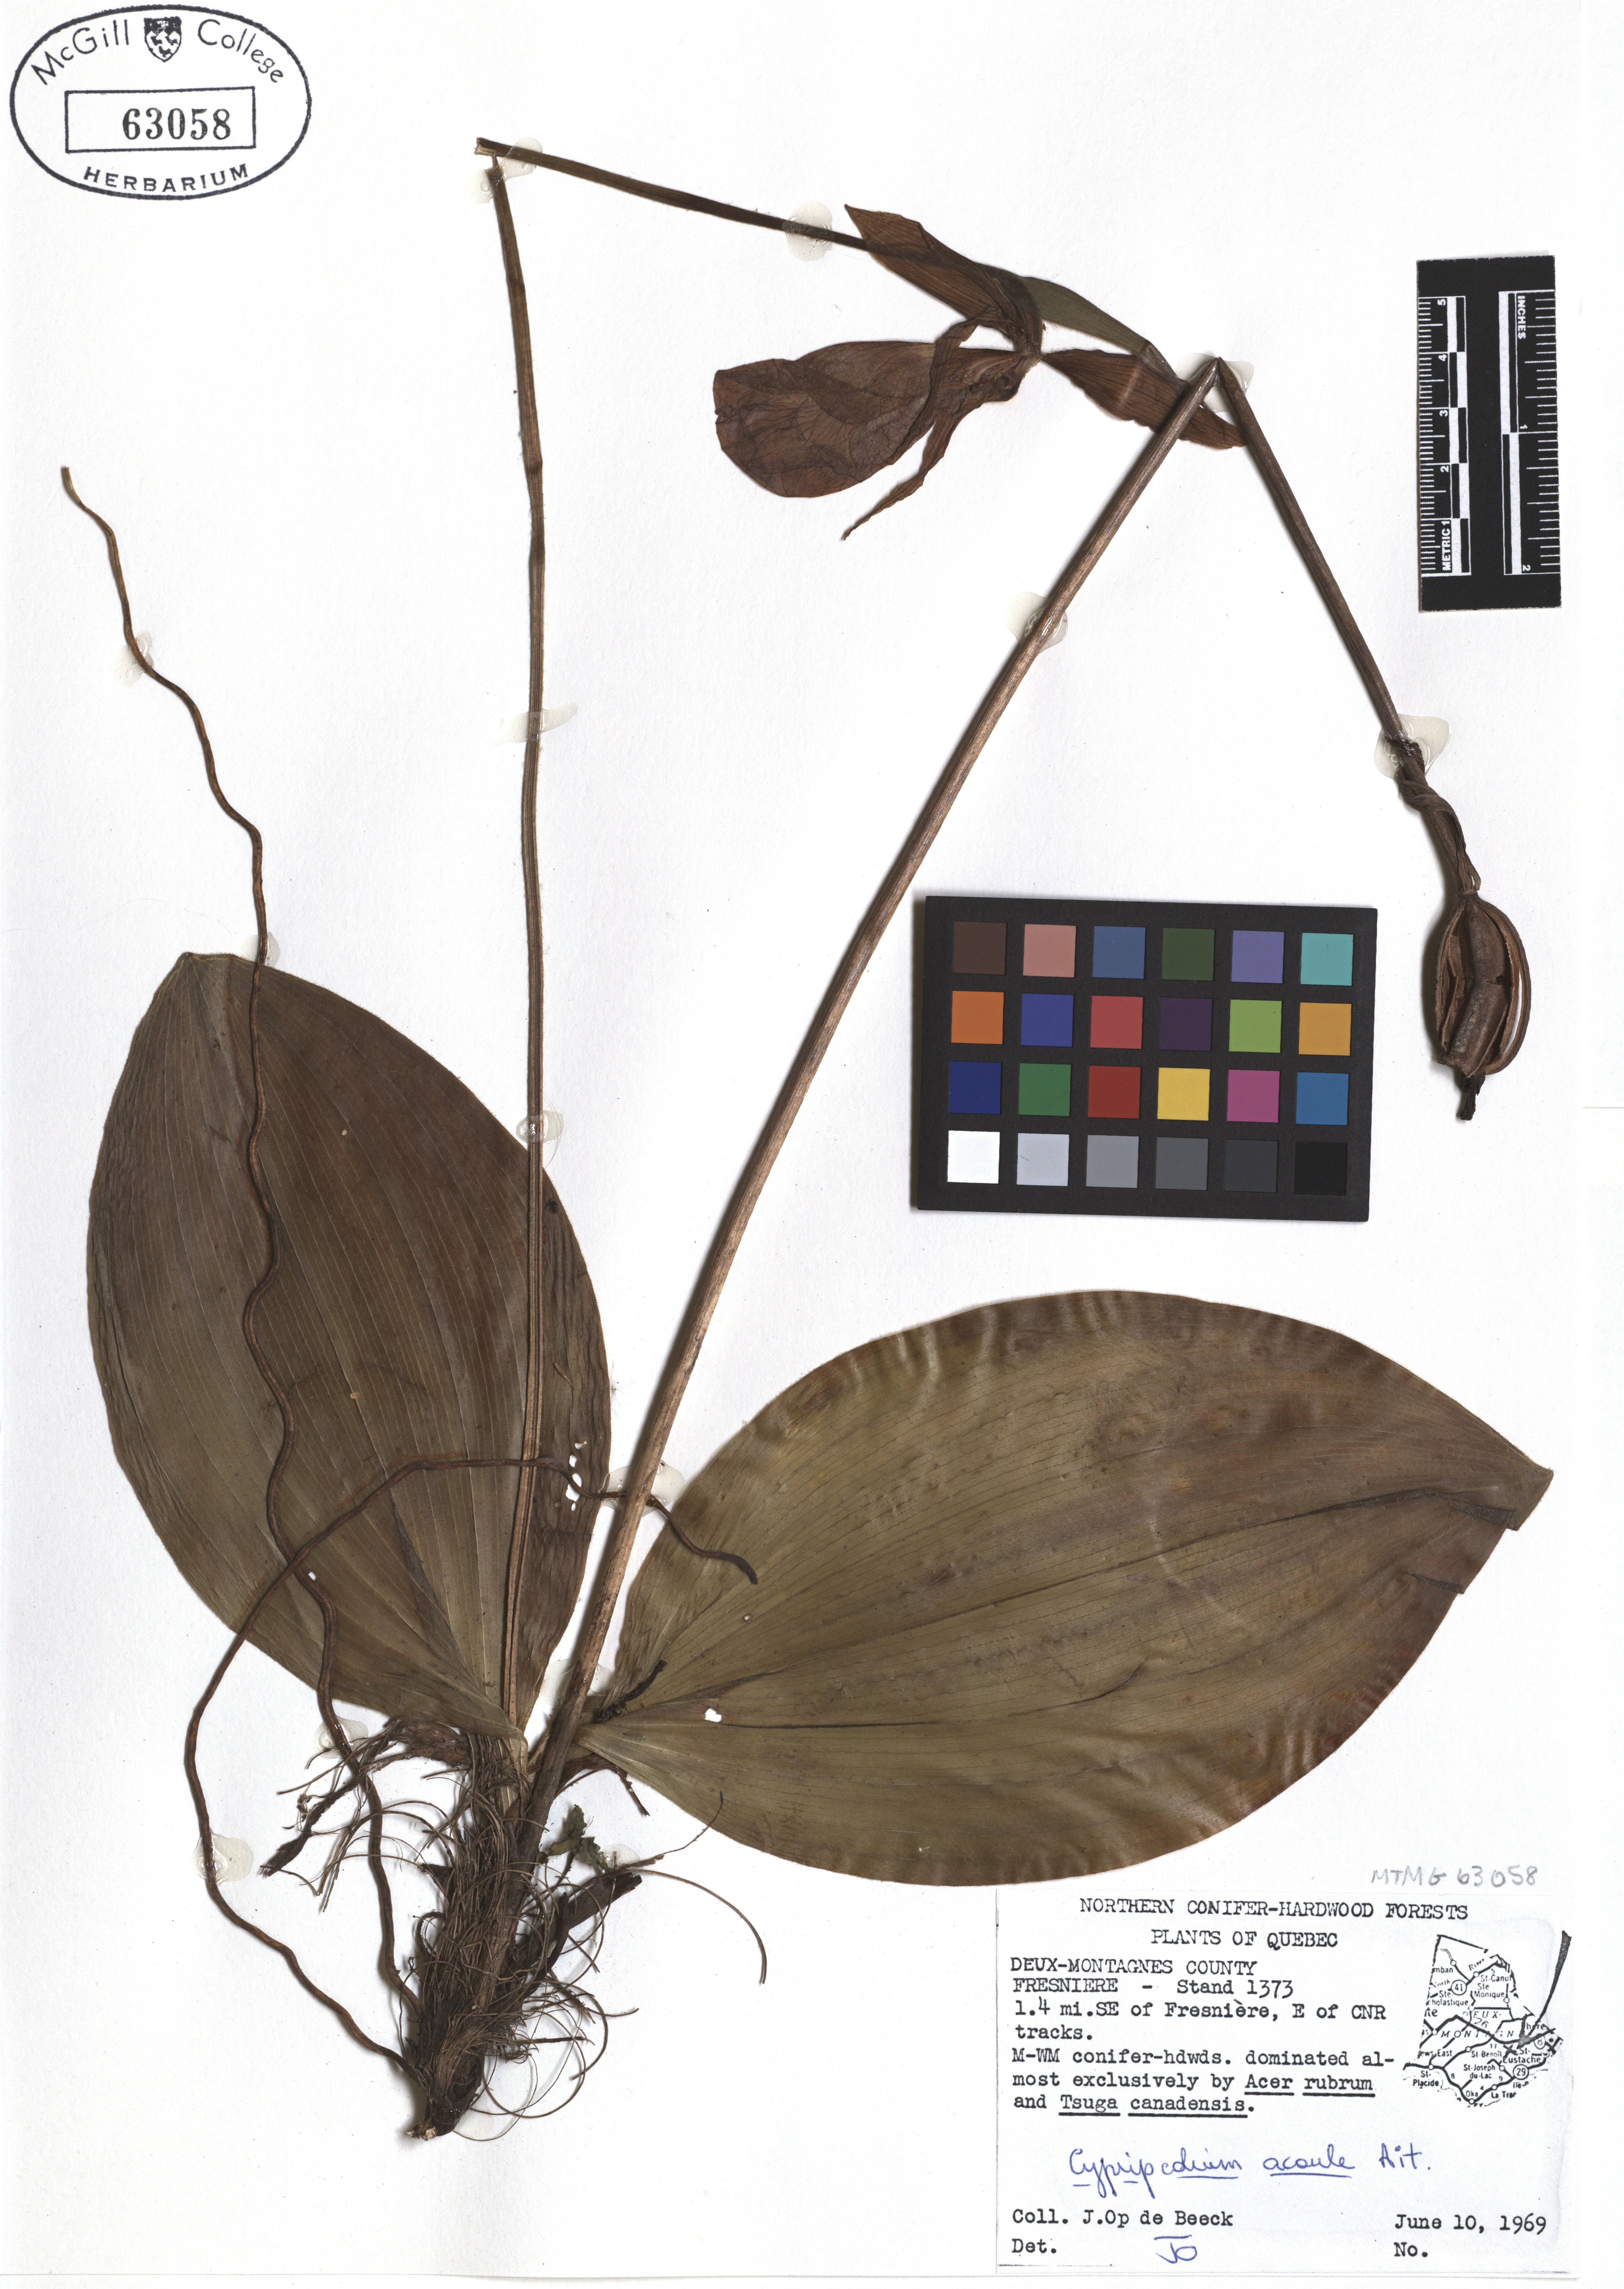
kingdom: Plantae
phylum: Tracheophyta
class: Liliopsida
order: Asparagales
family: Orchidaceae
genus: Cypripedium
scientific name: Cypripedium acaule
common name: Pink lady's-slipper
